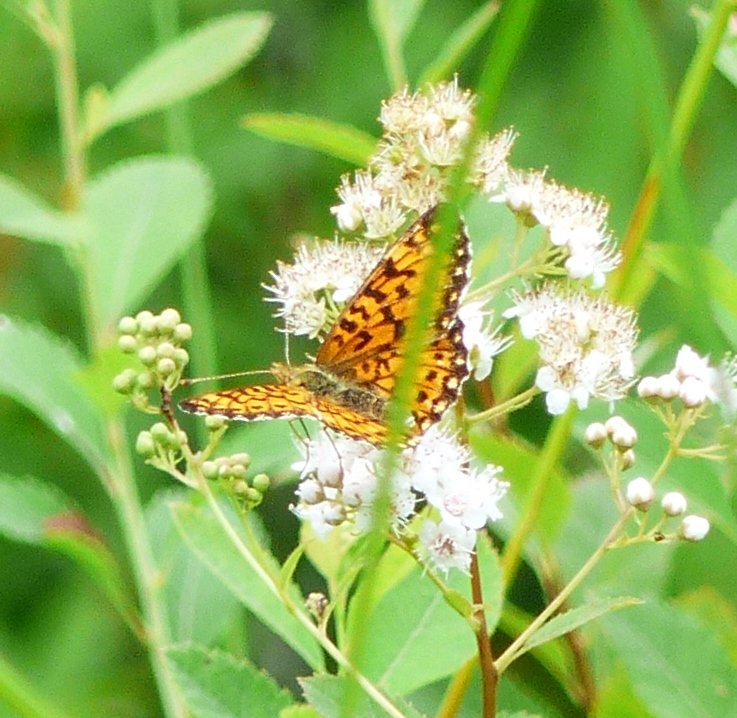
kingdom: Animalia
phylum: Arthropoda
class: Insecta
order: Lepidoptera
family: Nymphalidae
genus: Boloria
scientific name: Boloria selene
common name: Silver-bordered Fritillary
